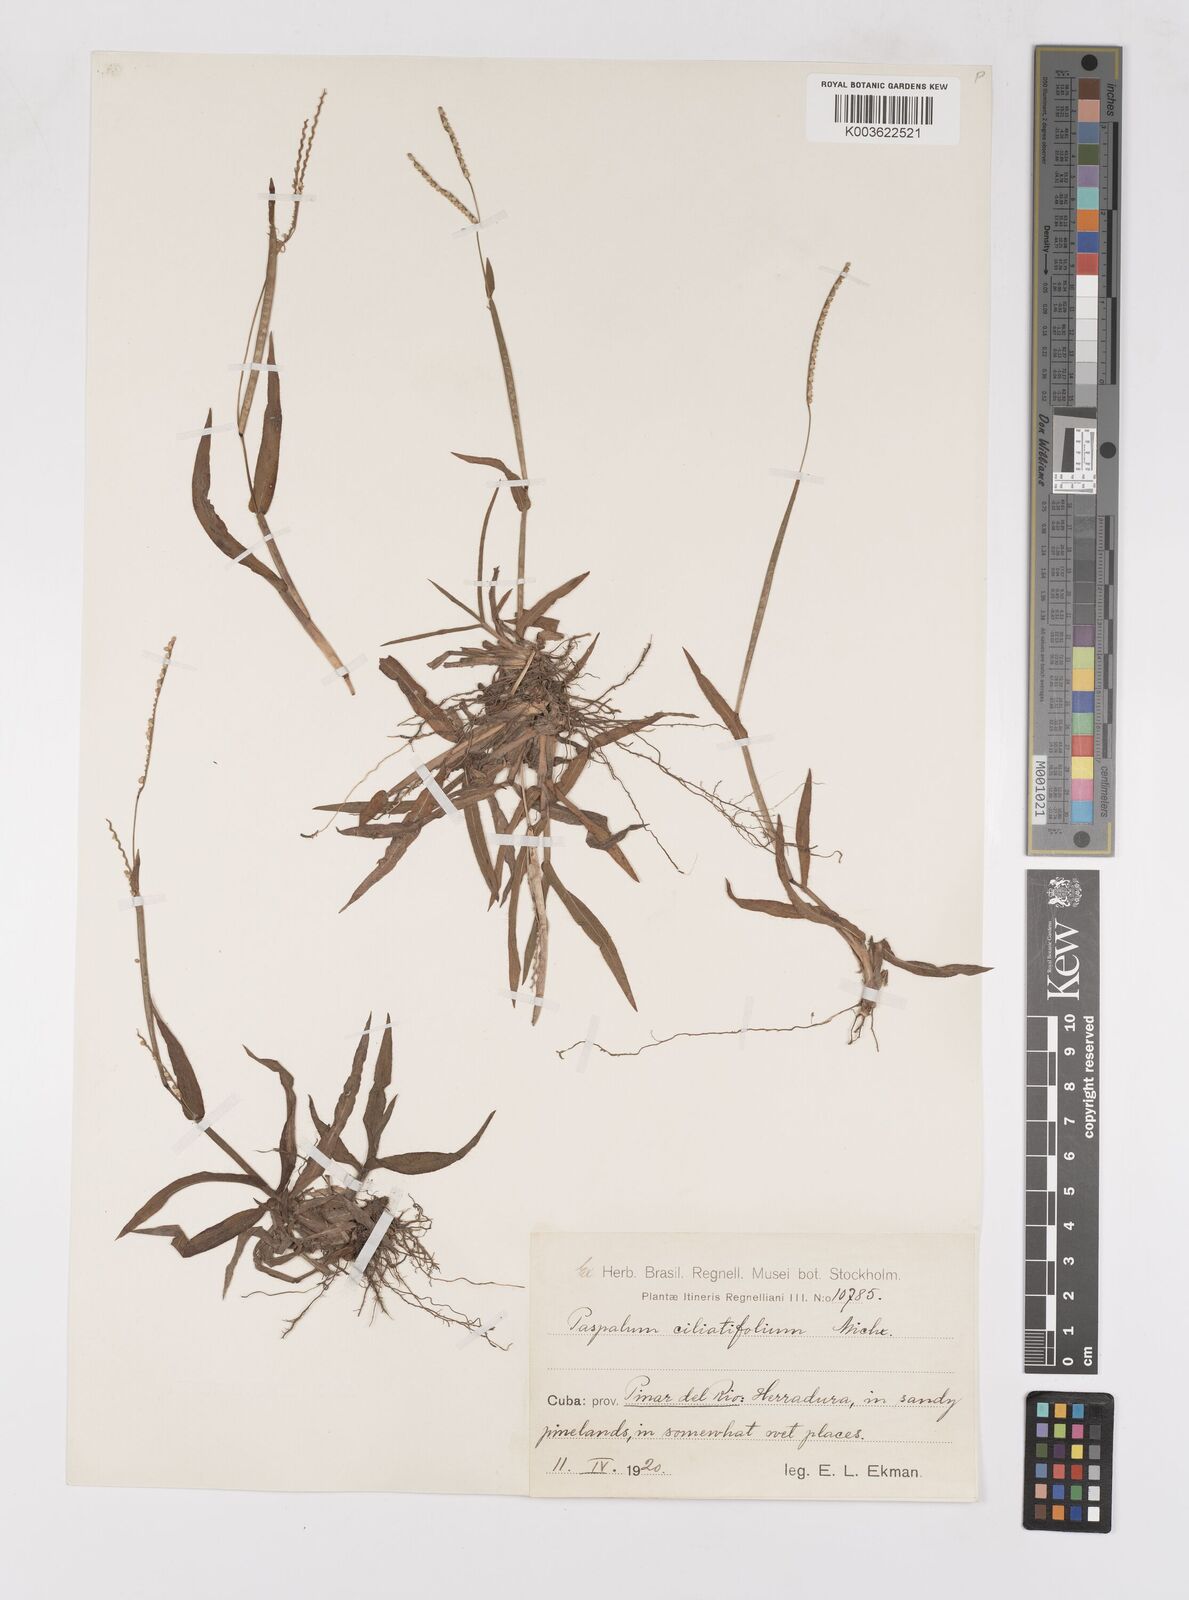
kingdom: Plantae
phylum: Tracheophyta
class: Liliopsida
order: Poales
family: Poaceae
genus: Paspalum
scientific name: Paspalum setaceum
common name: Slender paspalum
